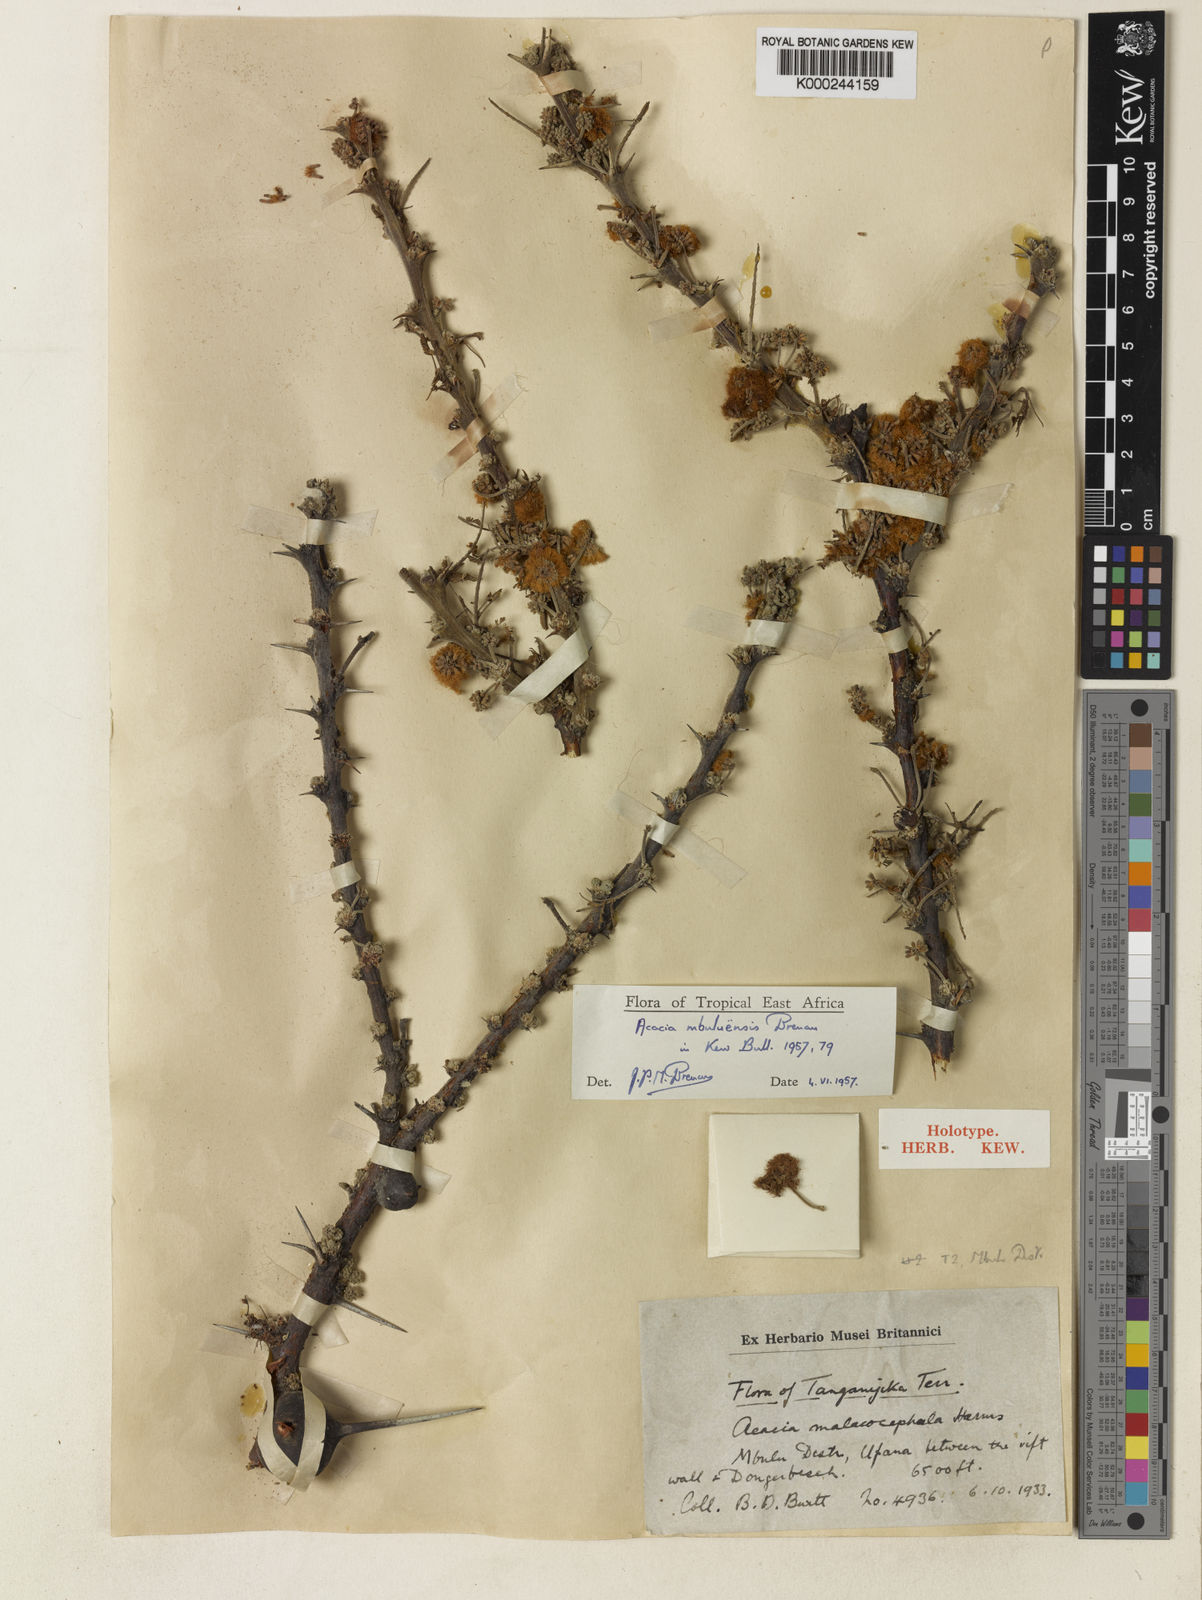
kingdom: Plantae
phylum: Tracheophyta
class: Magnoliopsida
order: Fabales
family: Fabaceae
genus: Vachellia
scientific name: Vachellia mbuluensis
